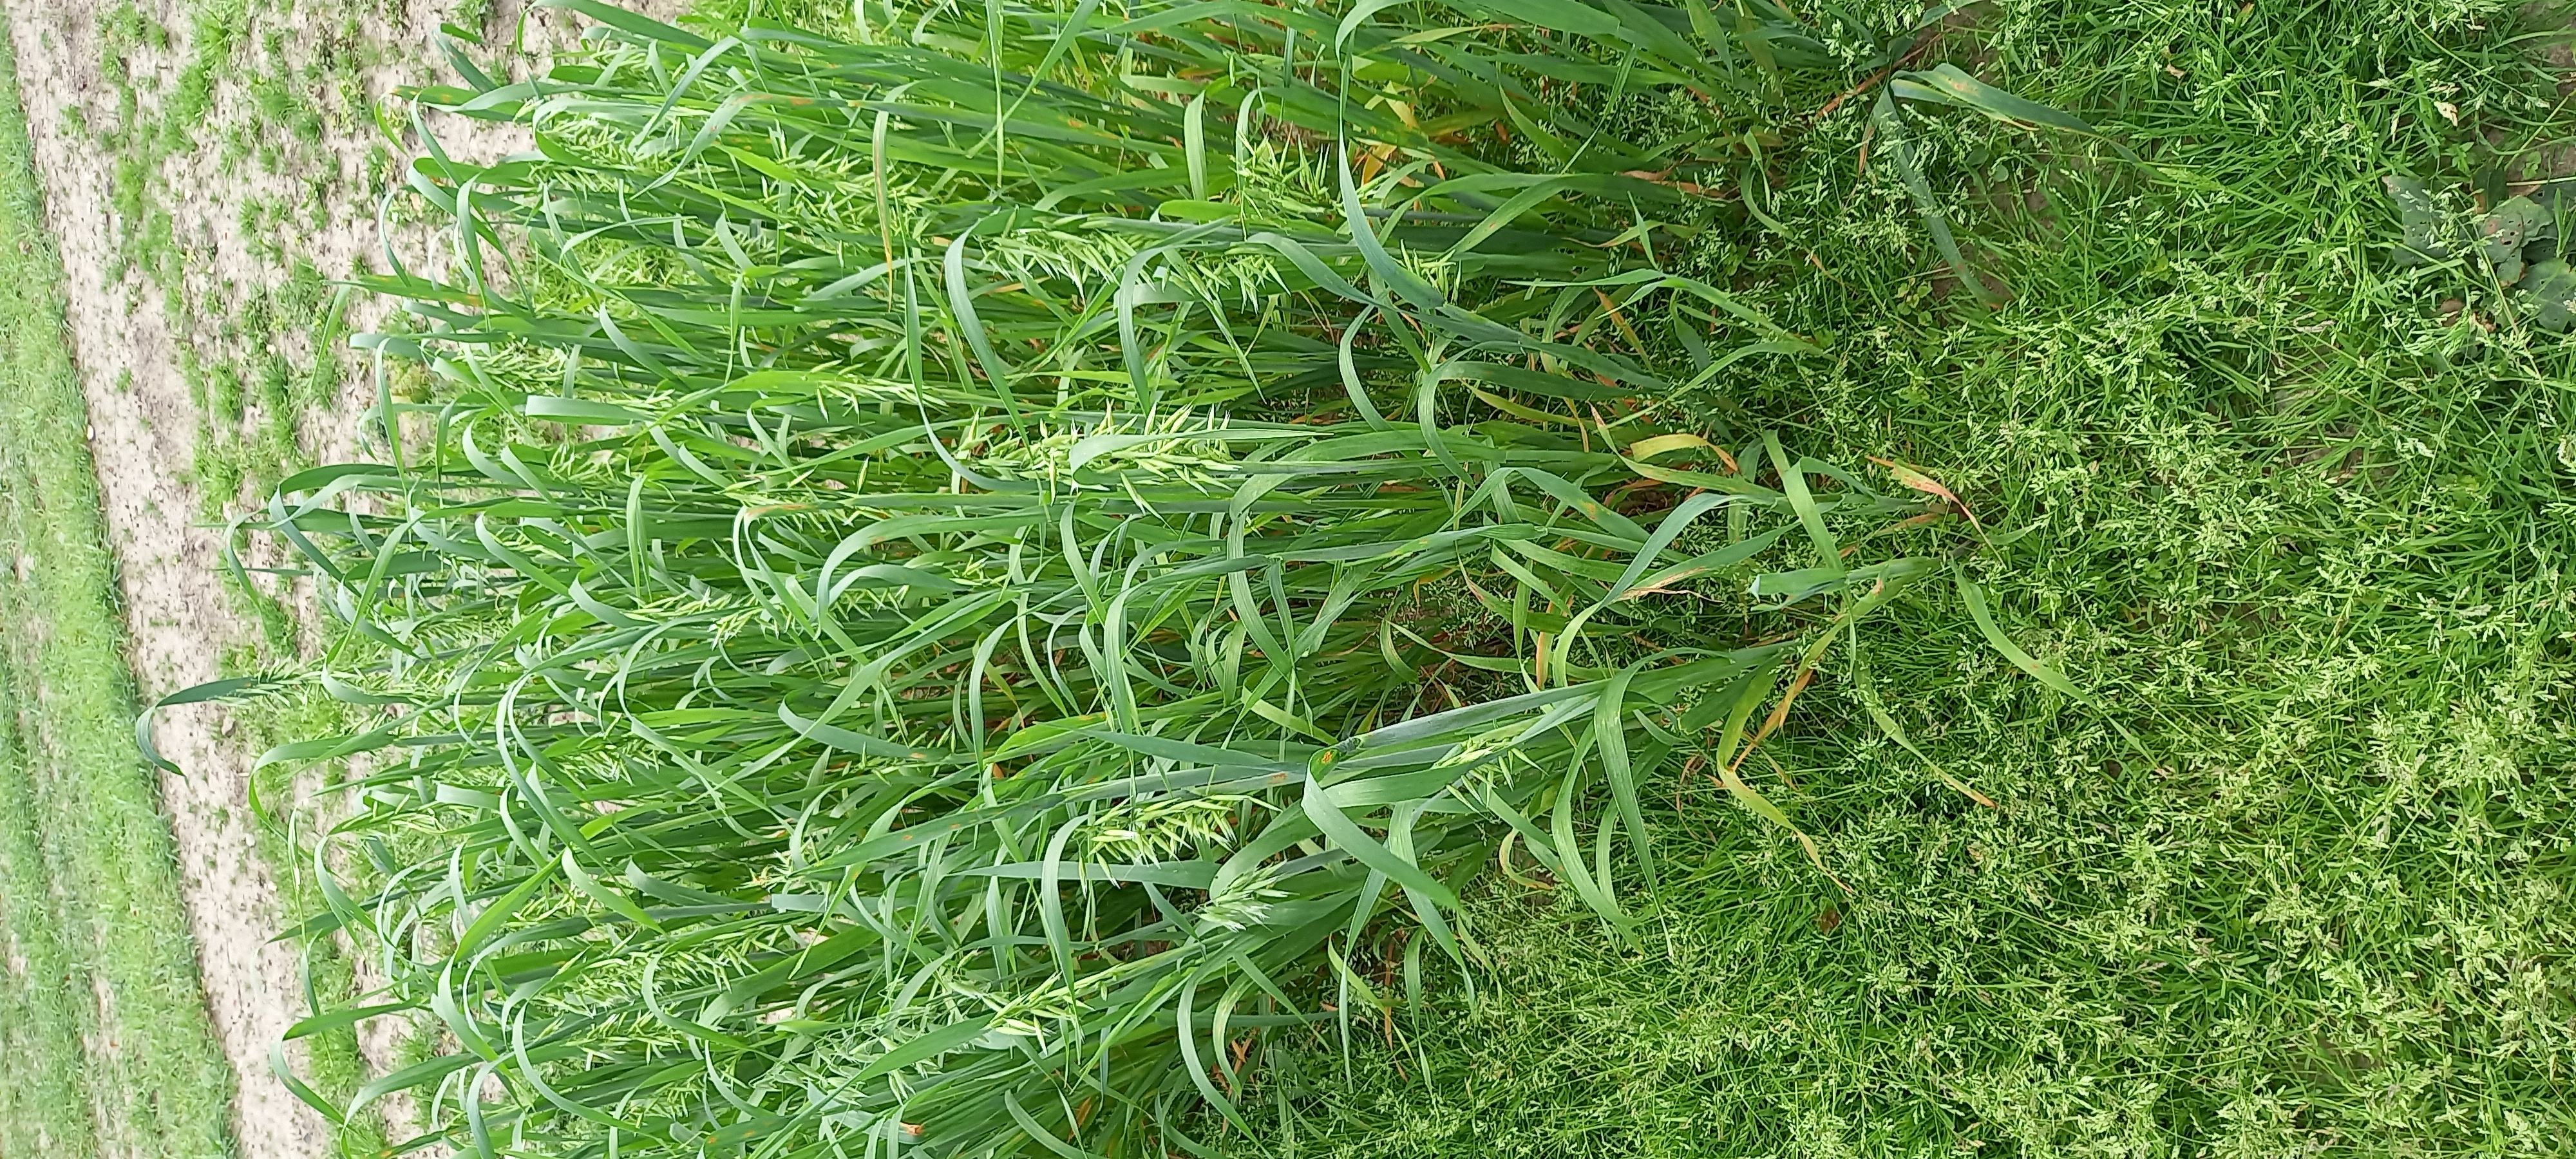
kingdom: Plantae
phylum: Tracheophyta
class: Liliopsida
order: Poales
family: Poaceae
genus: Avena
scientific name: Avena sativa
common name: Oat
